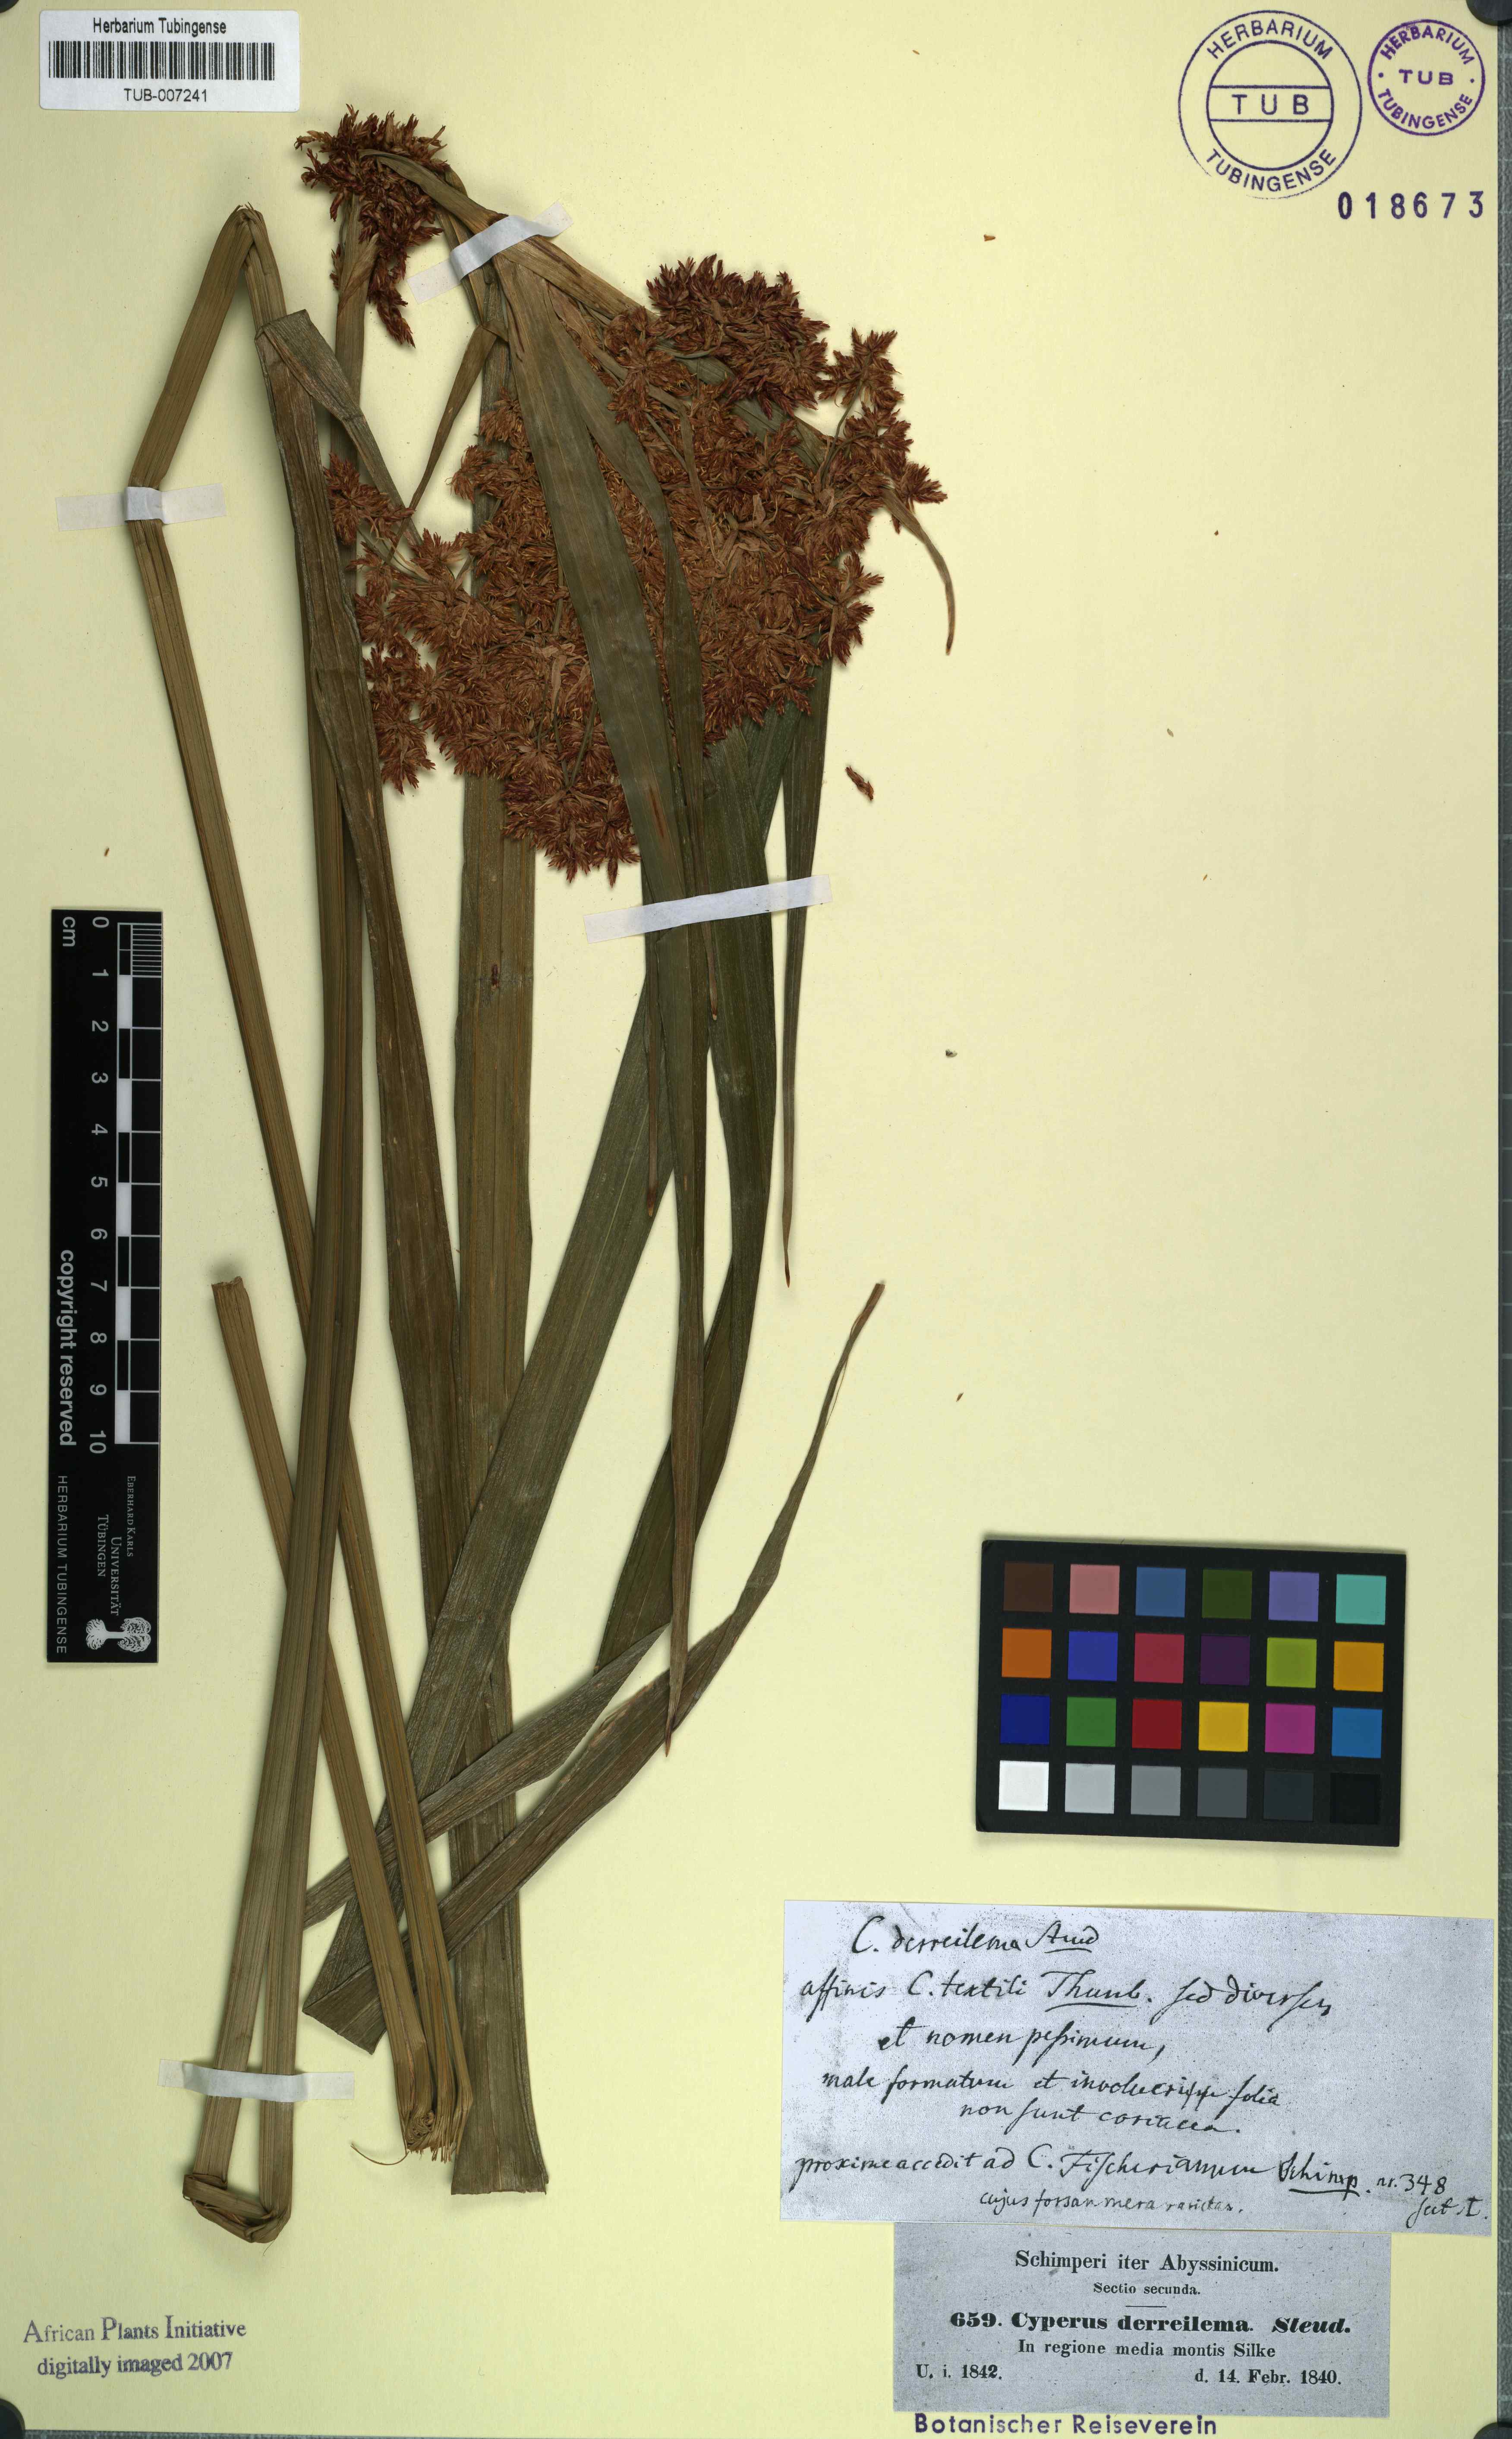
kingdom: Plantae
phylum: Tracheophyta
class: Liliopsida
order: Poales
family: Cyperaceae
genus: Cyperus
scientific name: Cyperus derreilema
